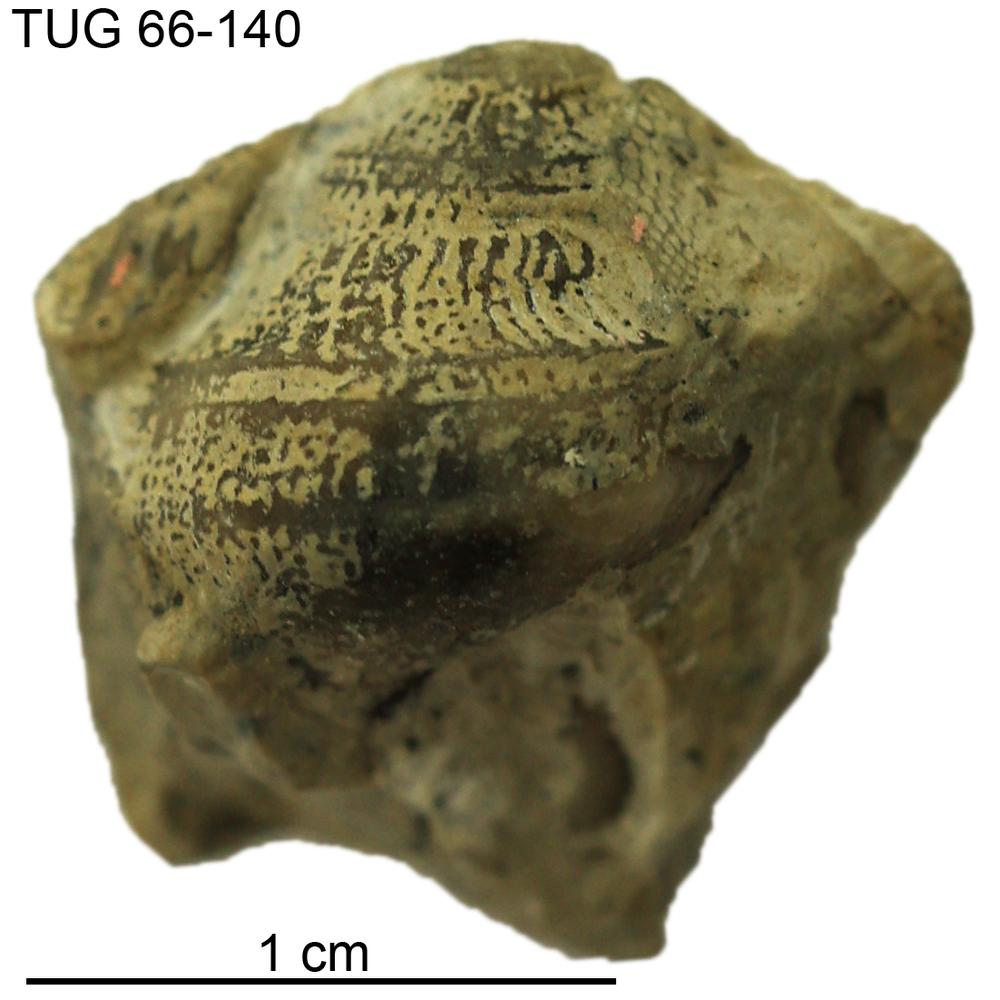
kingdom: Animalia
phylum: Mollusca
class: Gastropoda
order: Pleurotomariida
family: Phanerotrematidae
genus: Brachytomaria
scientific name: Brachytomaria nodulosa
